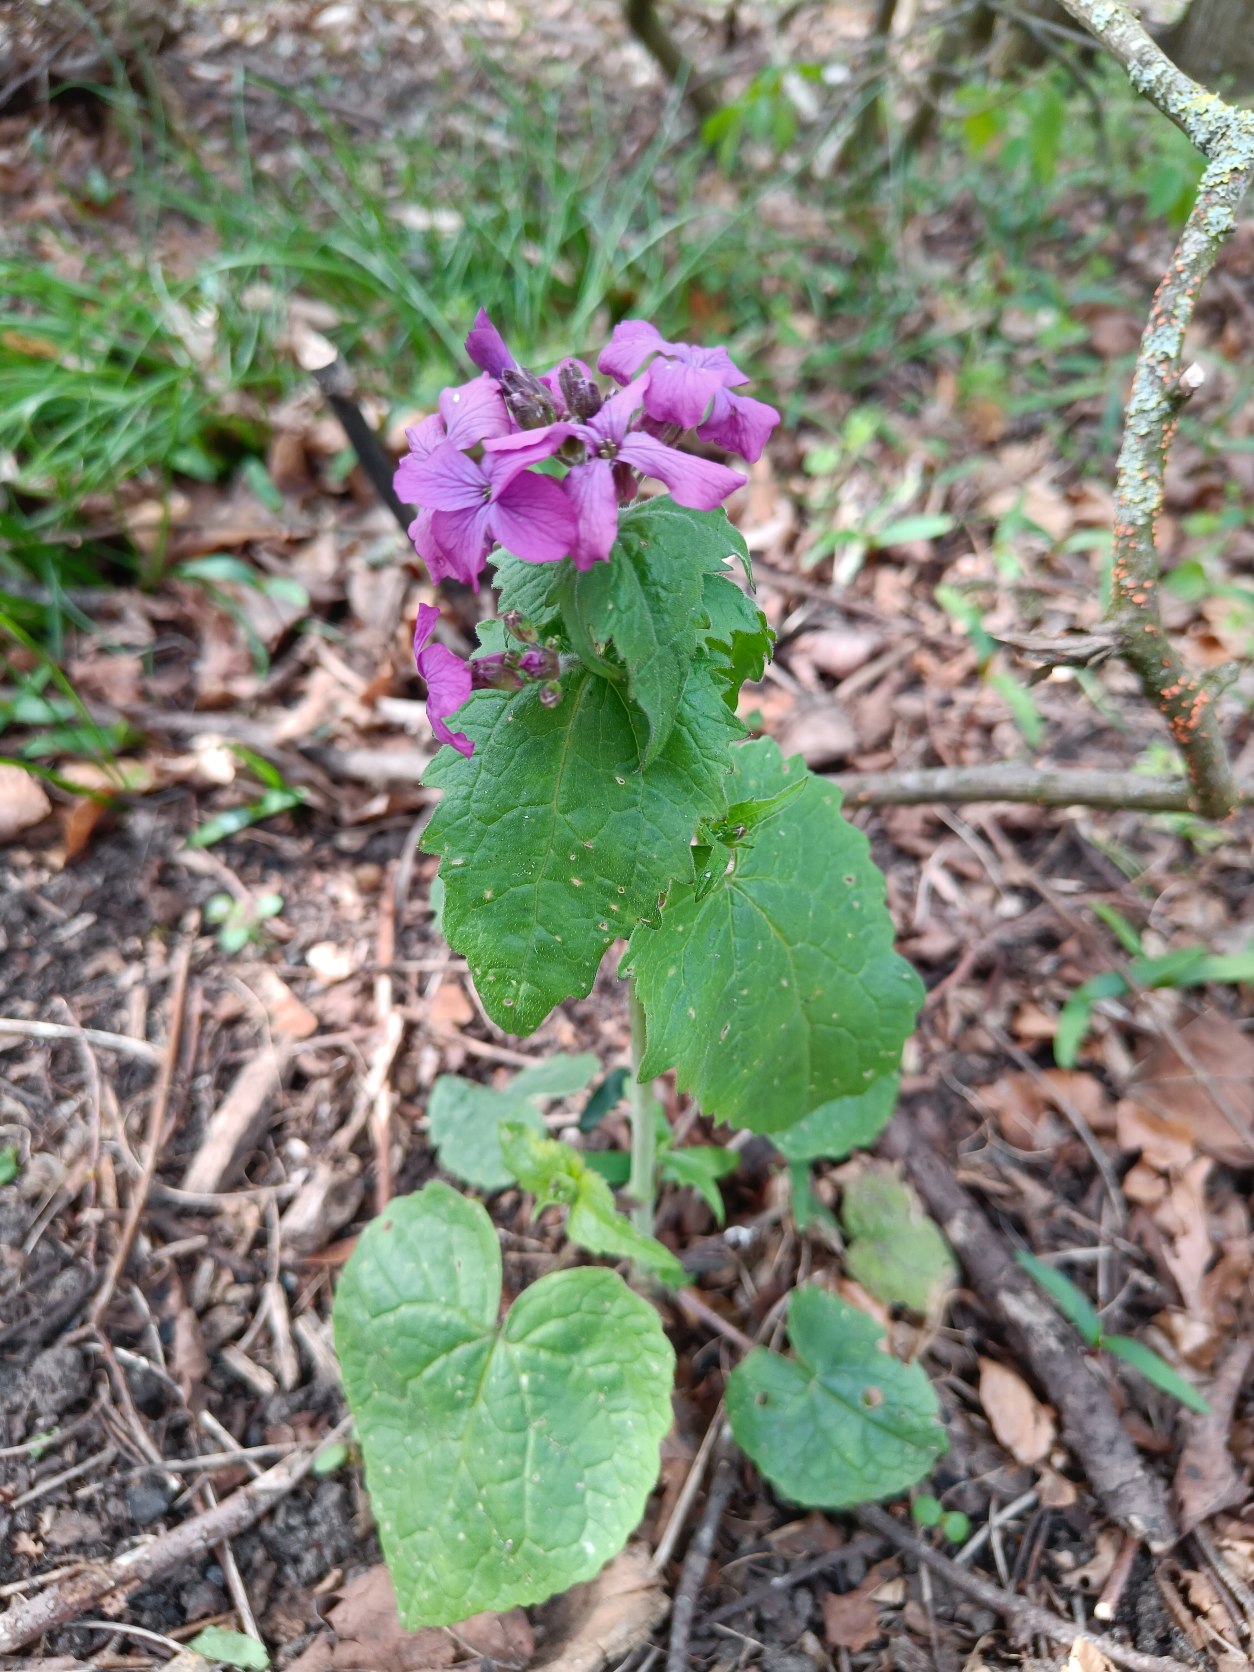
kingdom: Plantae
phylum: Tracheophyta
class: Magnoliopsida
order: Brassicales
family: Brassicaceae
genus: Lunaria
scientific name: Lunaria annua
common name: Judaspenge
